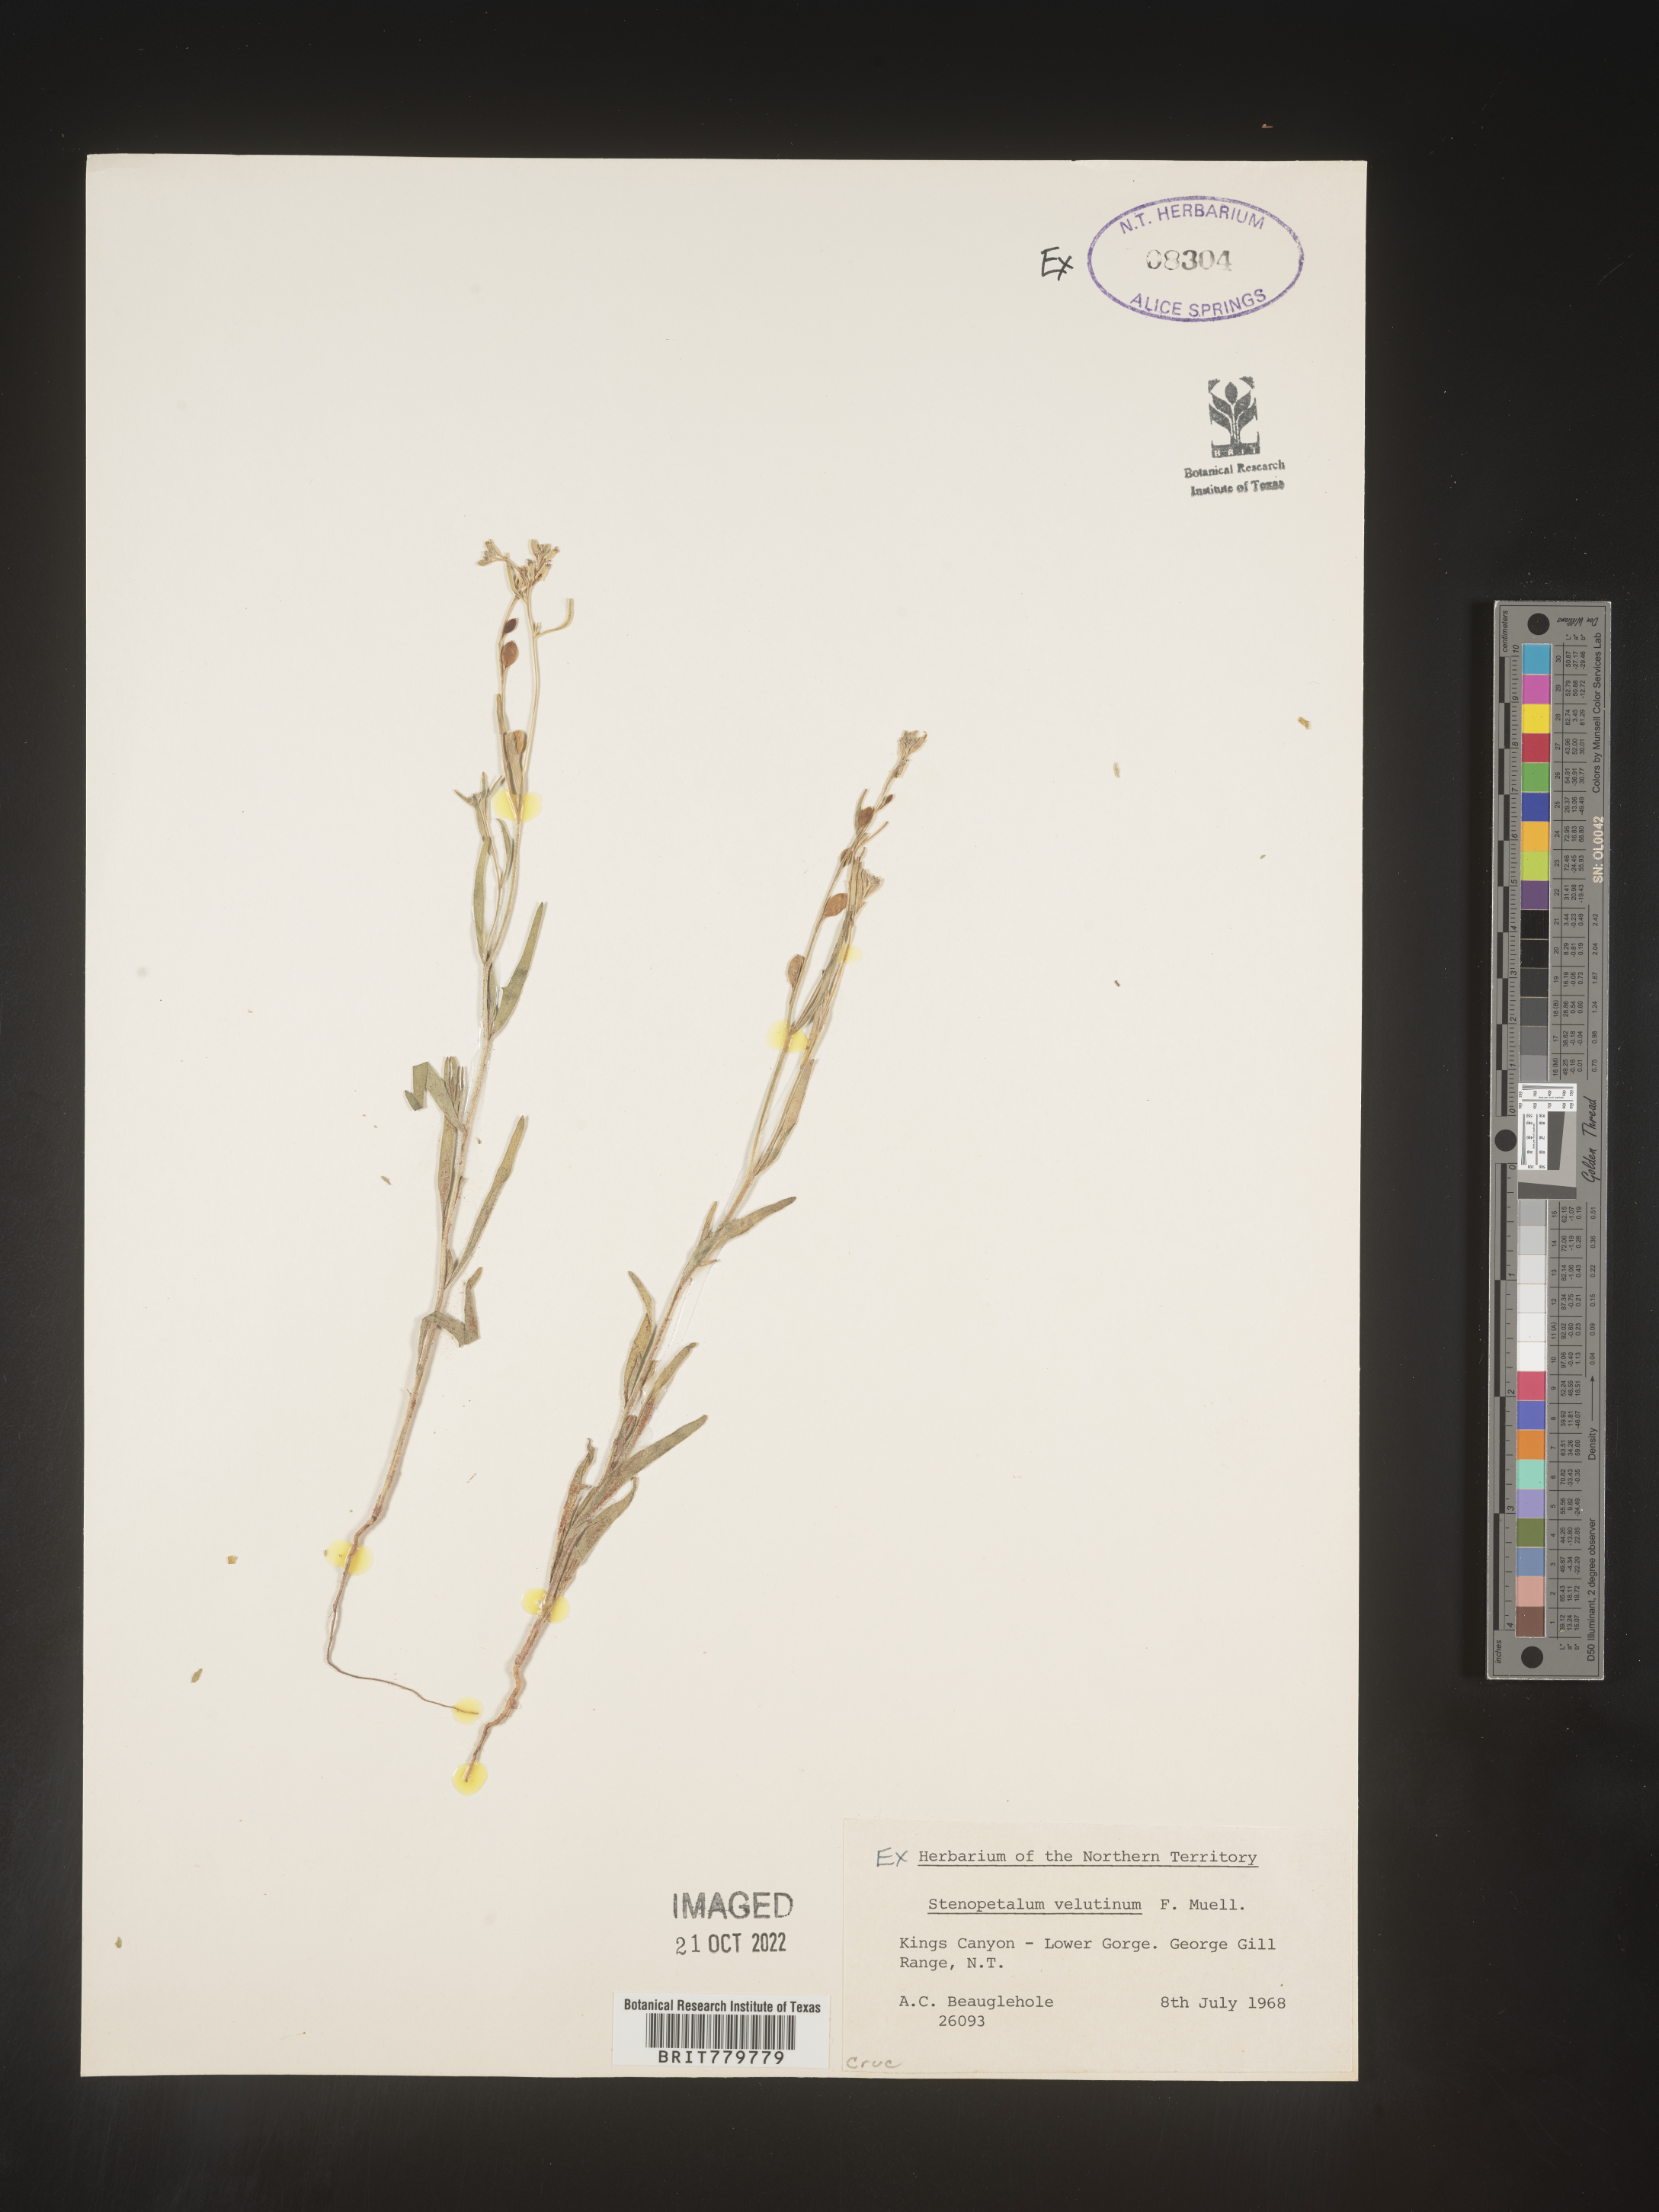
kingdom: Plantae
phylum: Tracheophyta
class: Magnoliopsida
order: Brassicales
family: Brassicaceae
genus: Stenopetalum
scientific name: Stenopetalum
